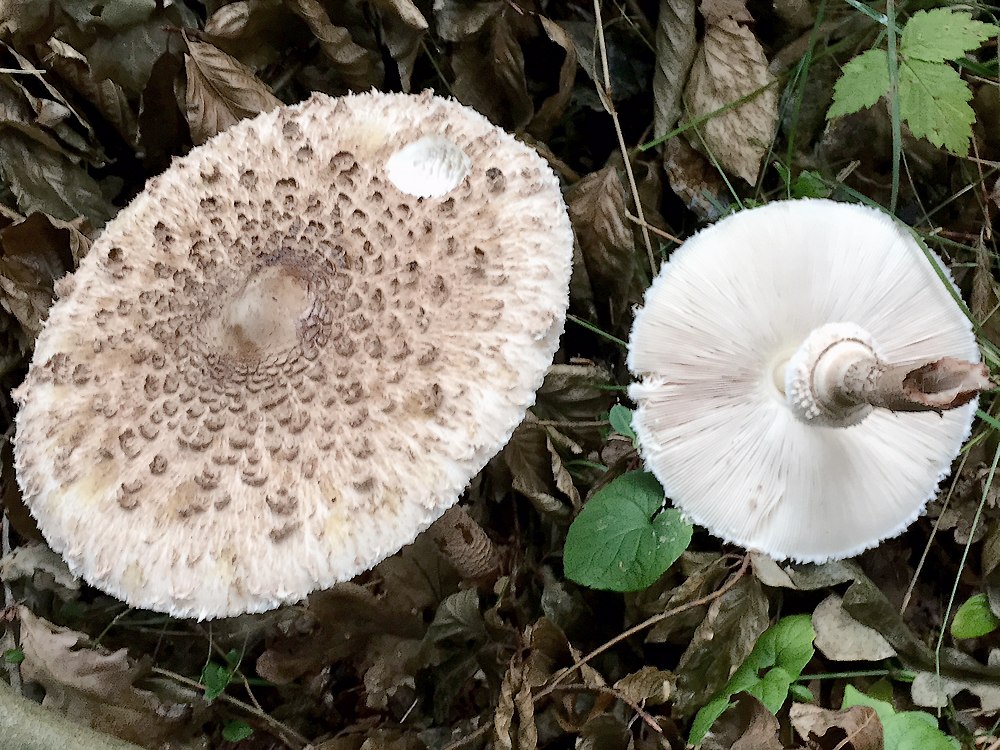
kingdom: Fungi
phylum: Basidiomycota
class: Agaricomycetes
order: Agaricales
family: Agaricaceae
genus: Macrolepiota
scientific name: Macrolepiota
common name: kæmpeparasolhat
